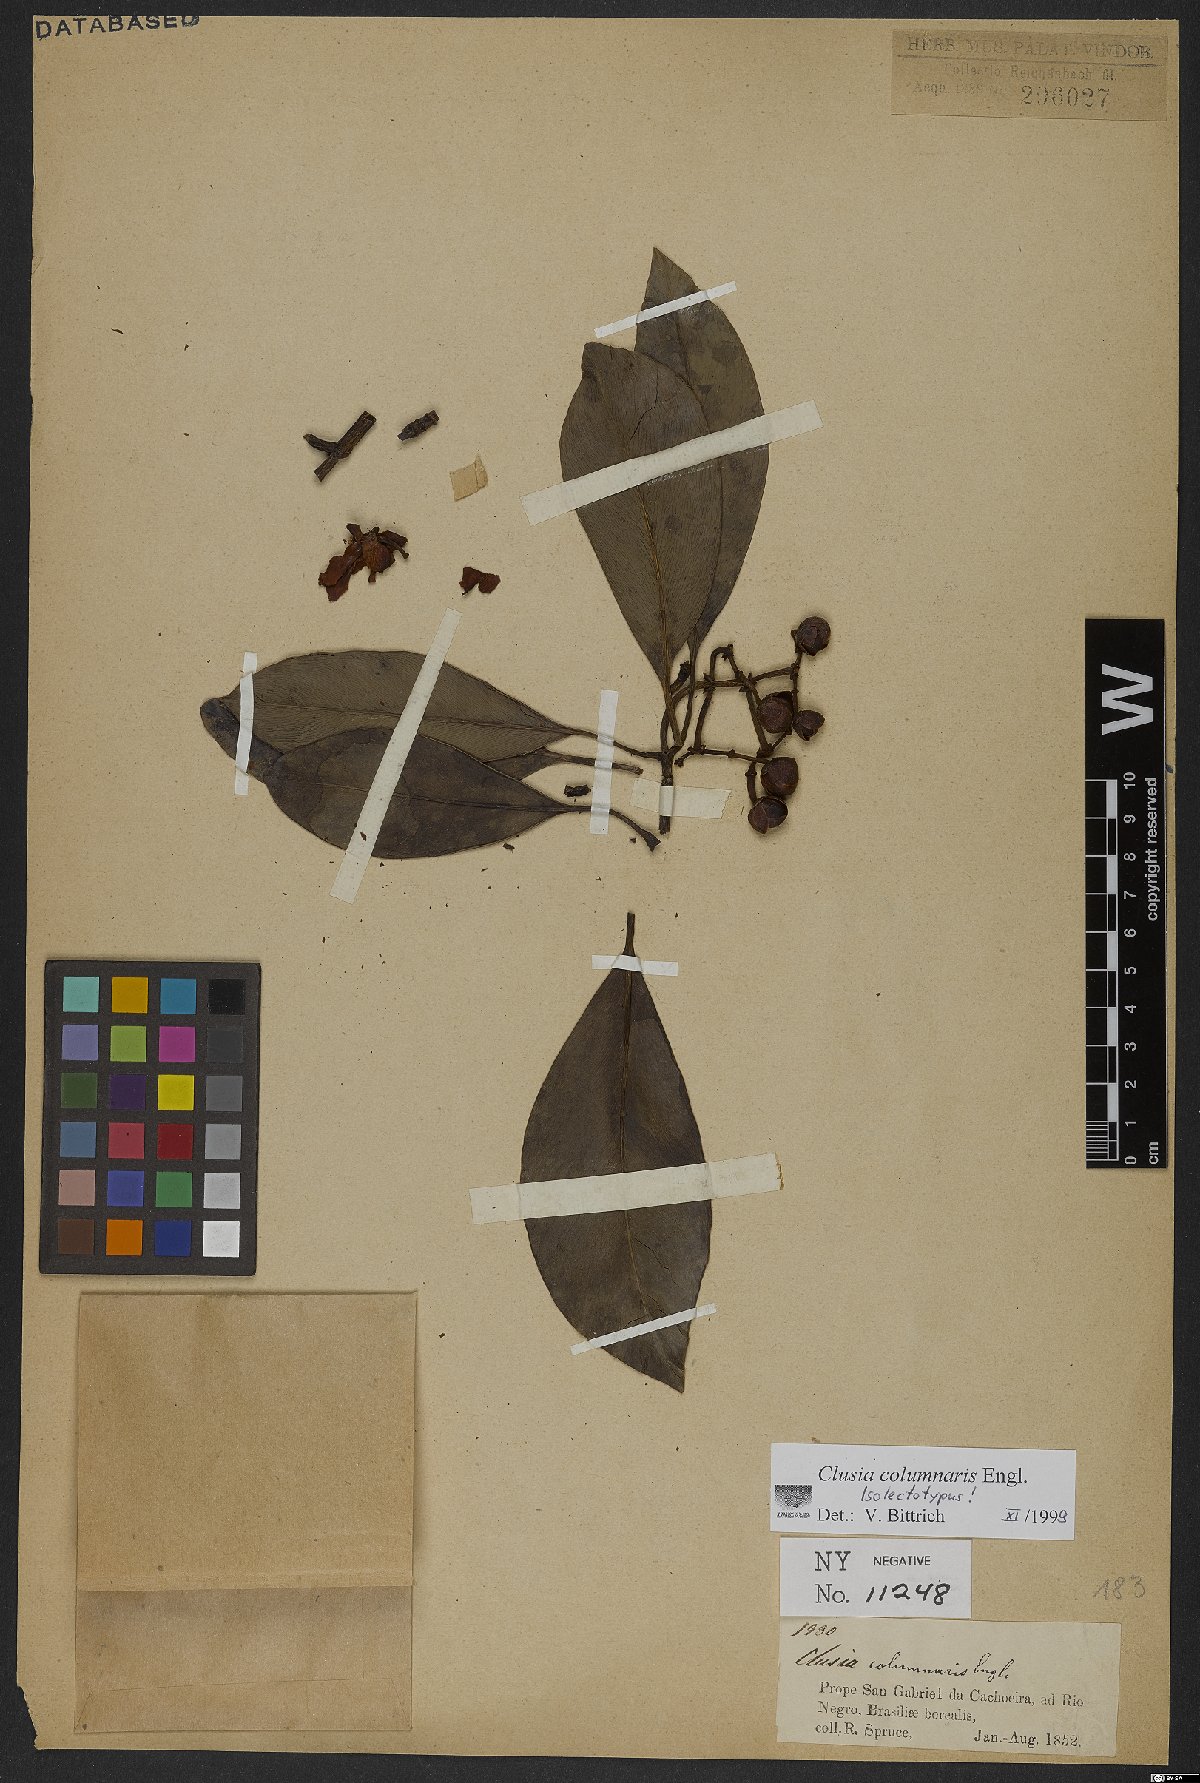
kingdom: Plantae
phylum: Tracheophyta
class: Magnoliopsida
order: Malpighiales
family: Clusiaceae
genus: Clusia
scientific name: Clusia columnaris
